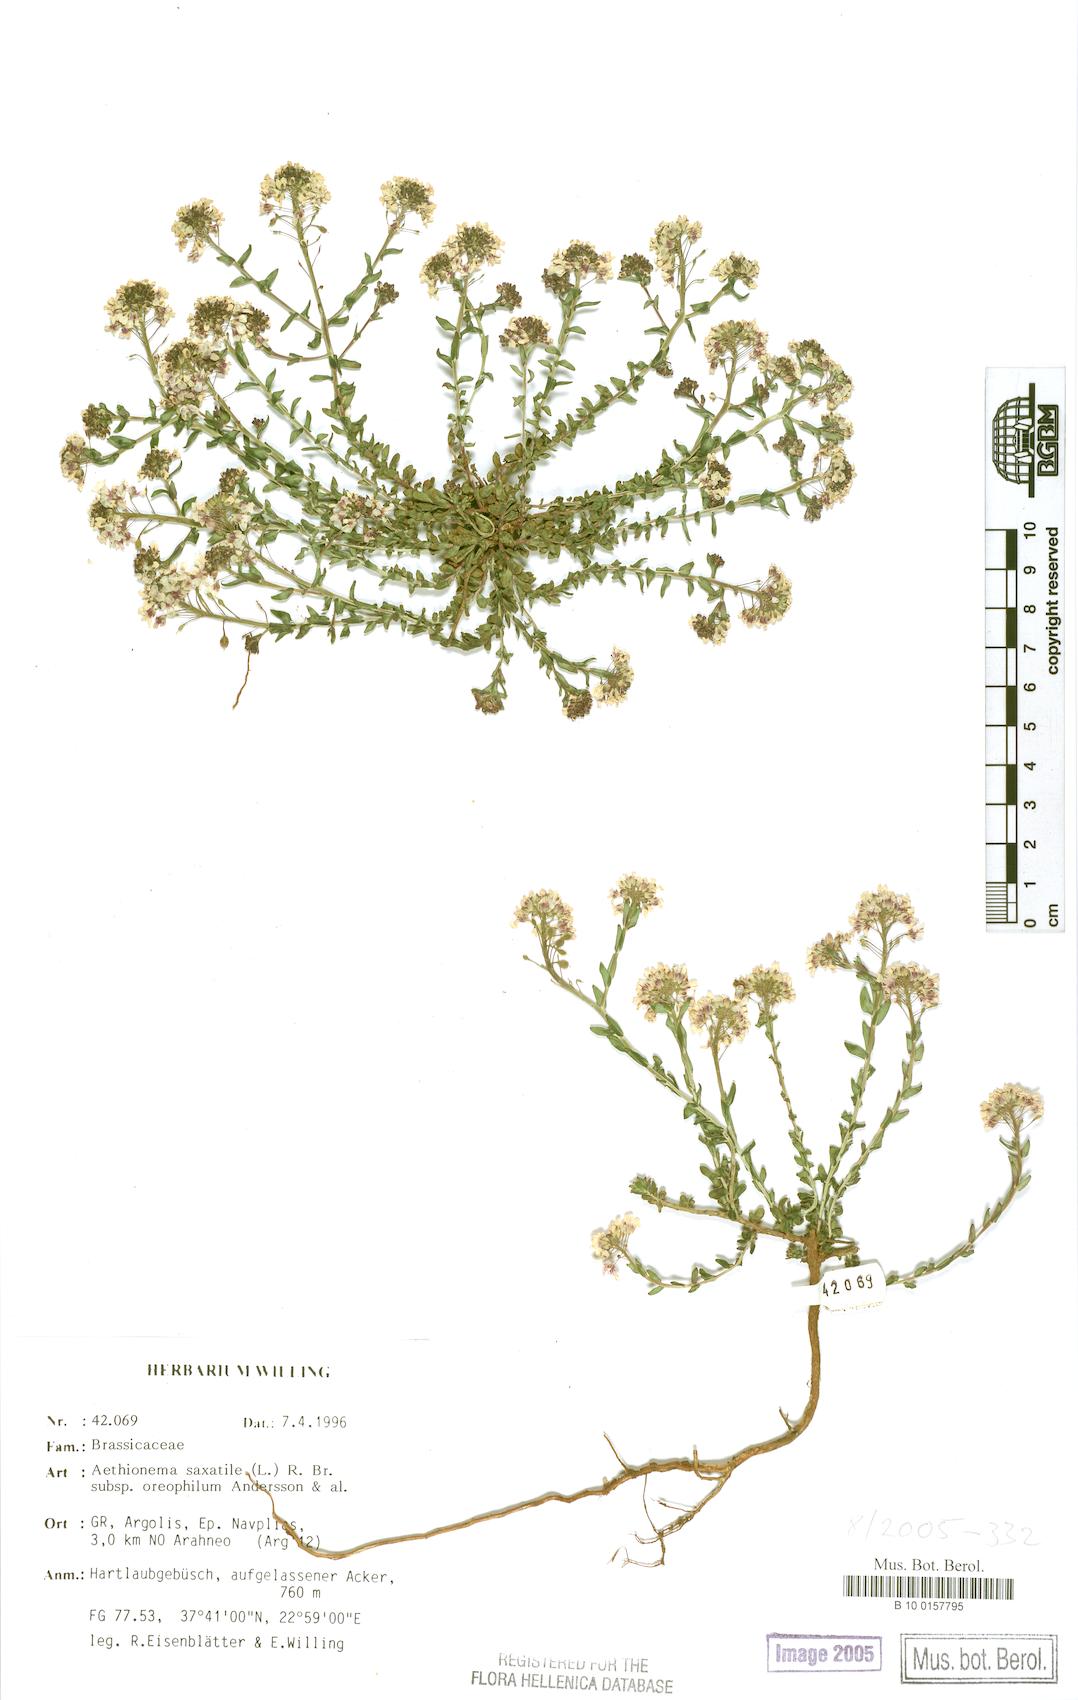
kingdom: Plantae
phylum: Tracheophyta
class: Magnoliopsida
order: Brassicales
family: Brassicaceae
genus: Aethionema
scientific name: Aethionema saxatile
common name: Burnt candytuft
